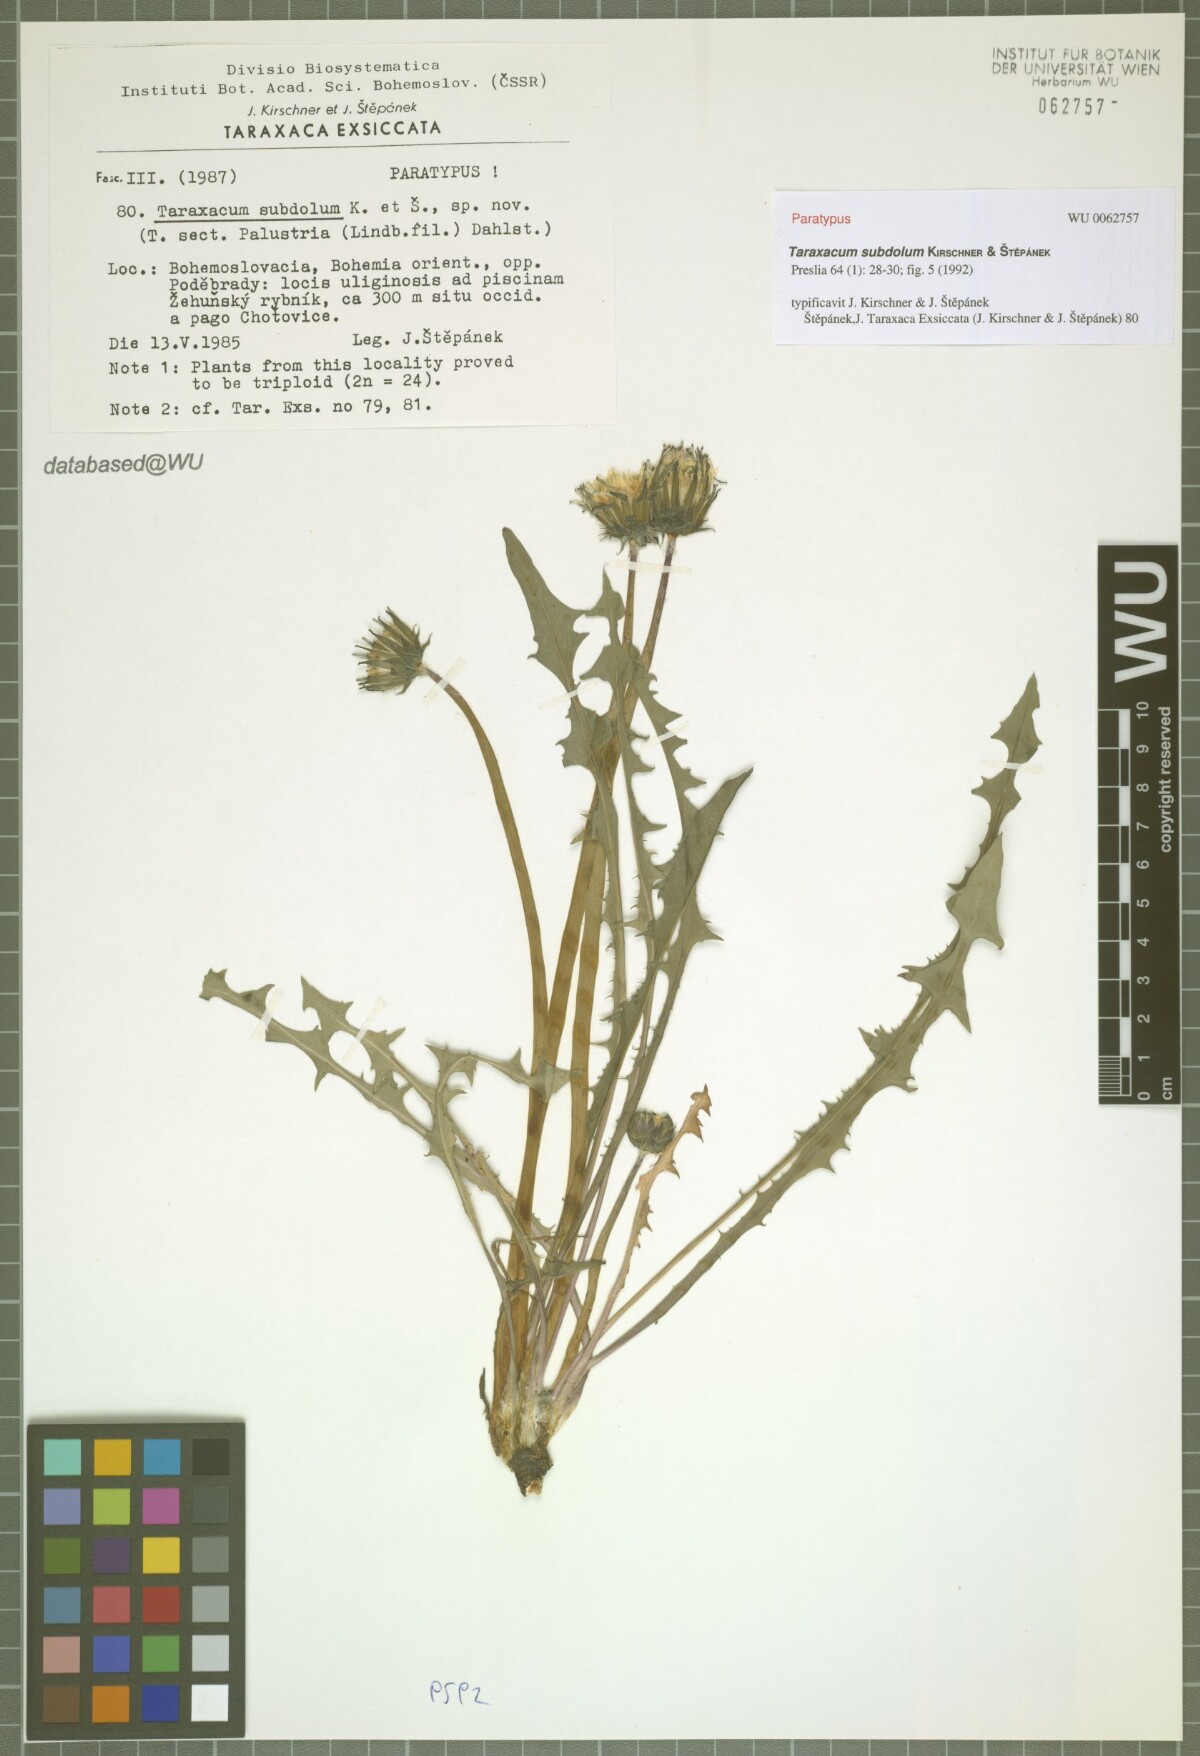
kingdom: Plantae
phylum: Tracheophyta
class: Magnoliopsida
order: Asterales
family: Asteraceae
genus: Taraxacum
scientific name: Taraxacum subdolum
